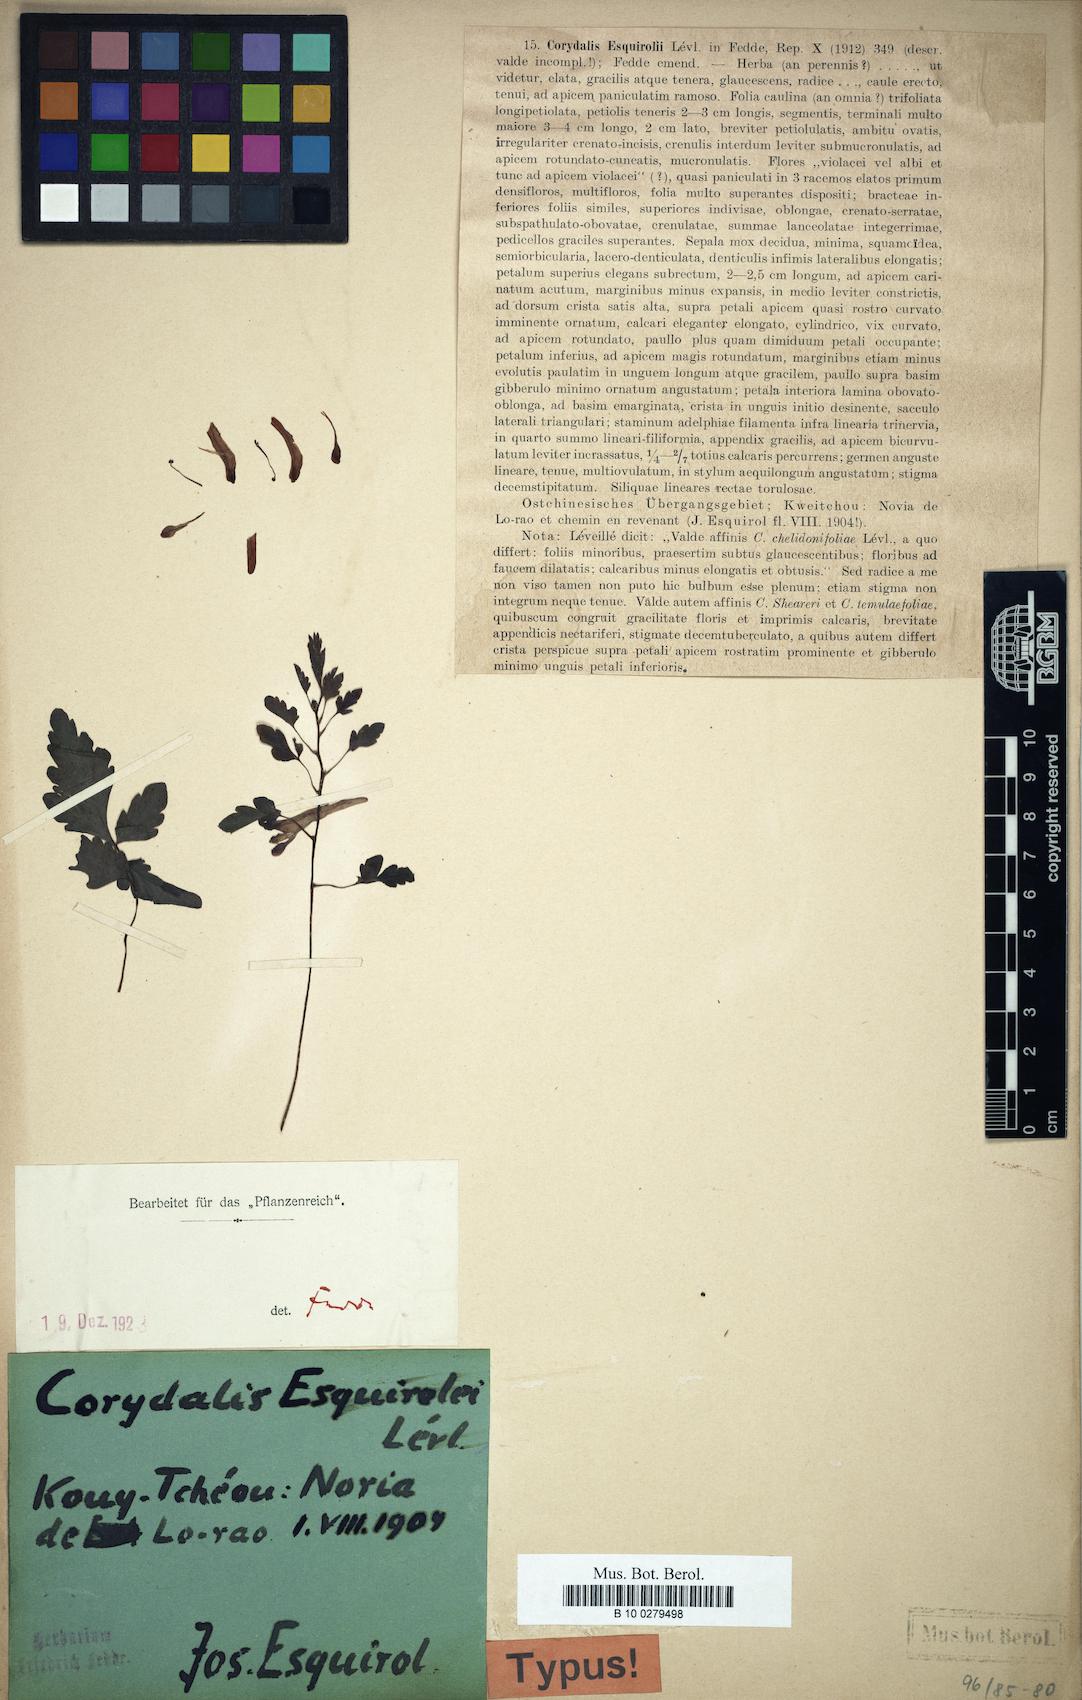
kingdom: Plantae
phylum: Tracheophyta
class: Magnoliopsida
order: Ranunculales
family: Papaveraceae
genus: Corydalis
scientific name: Corydalis esquirolii
